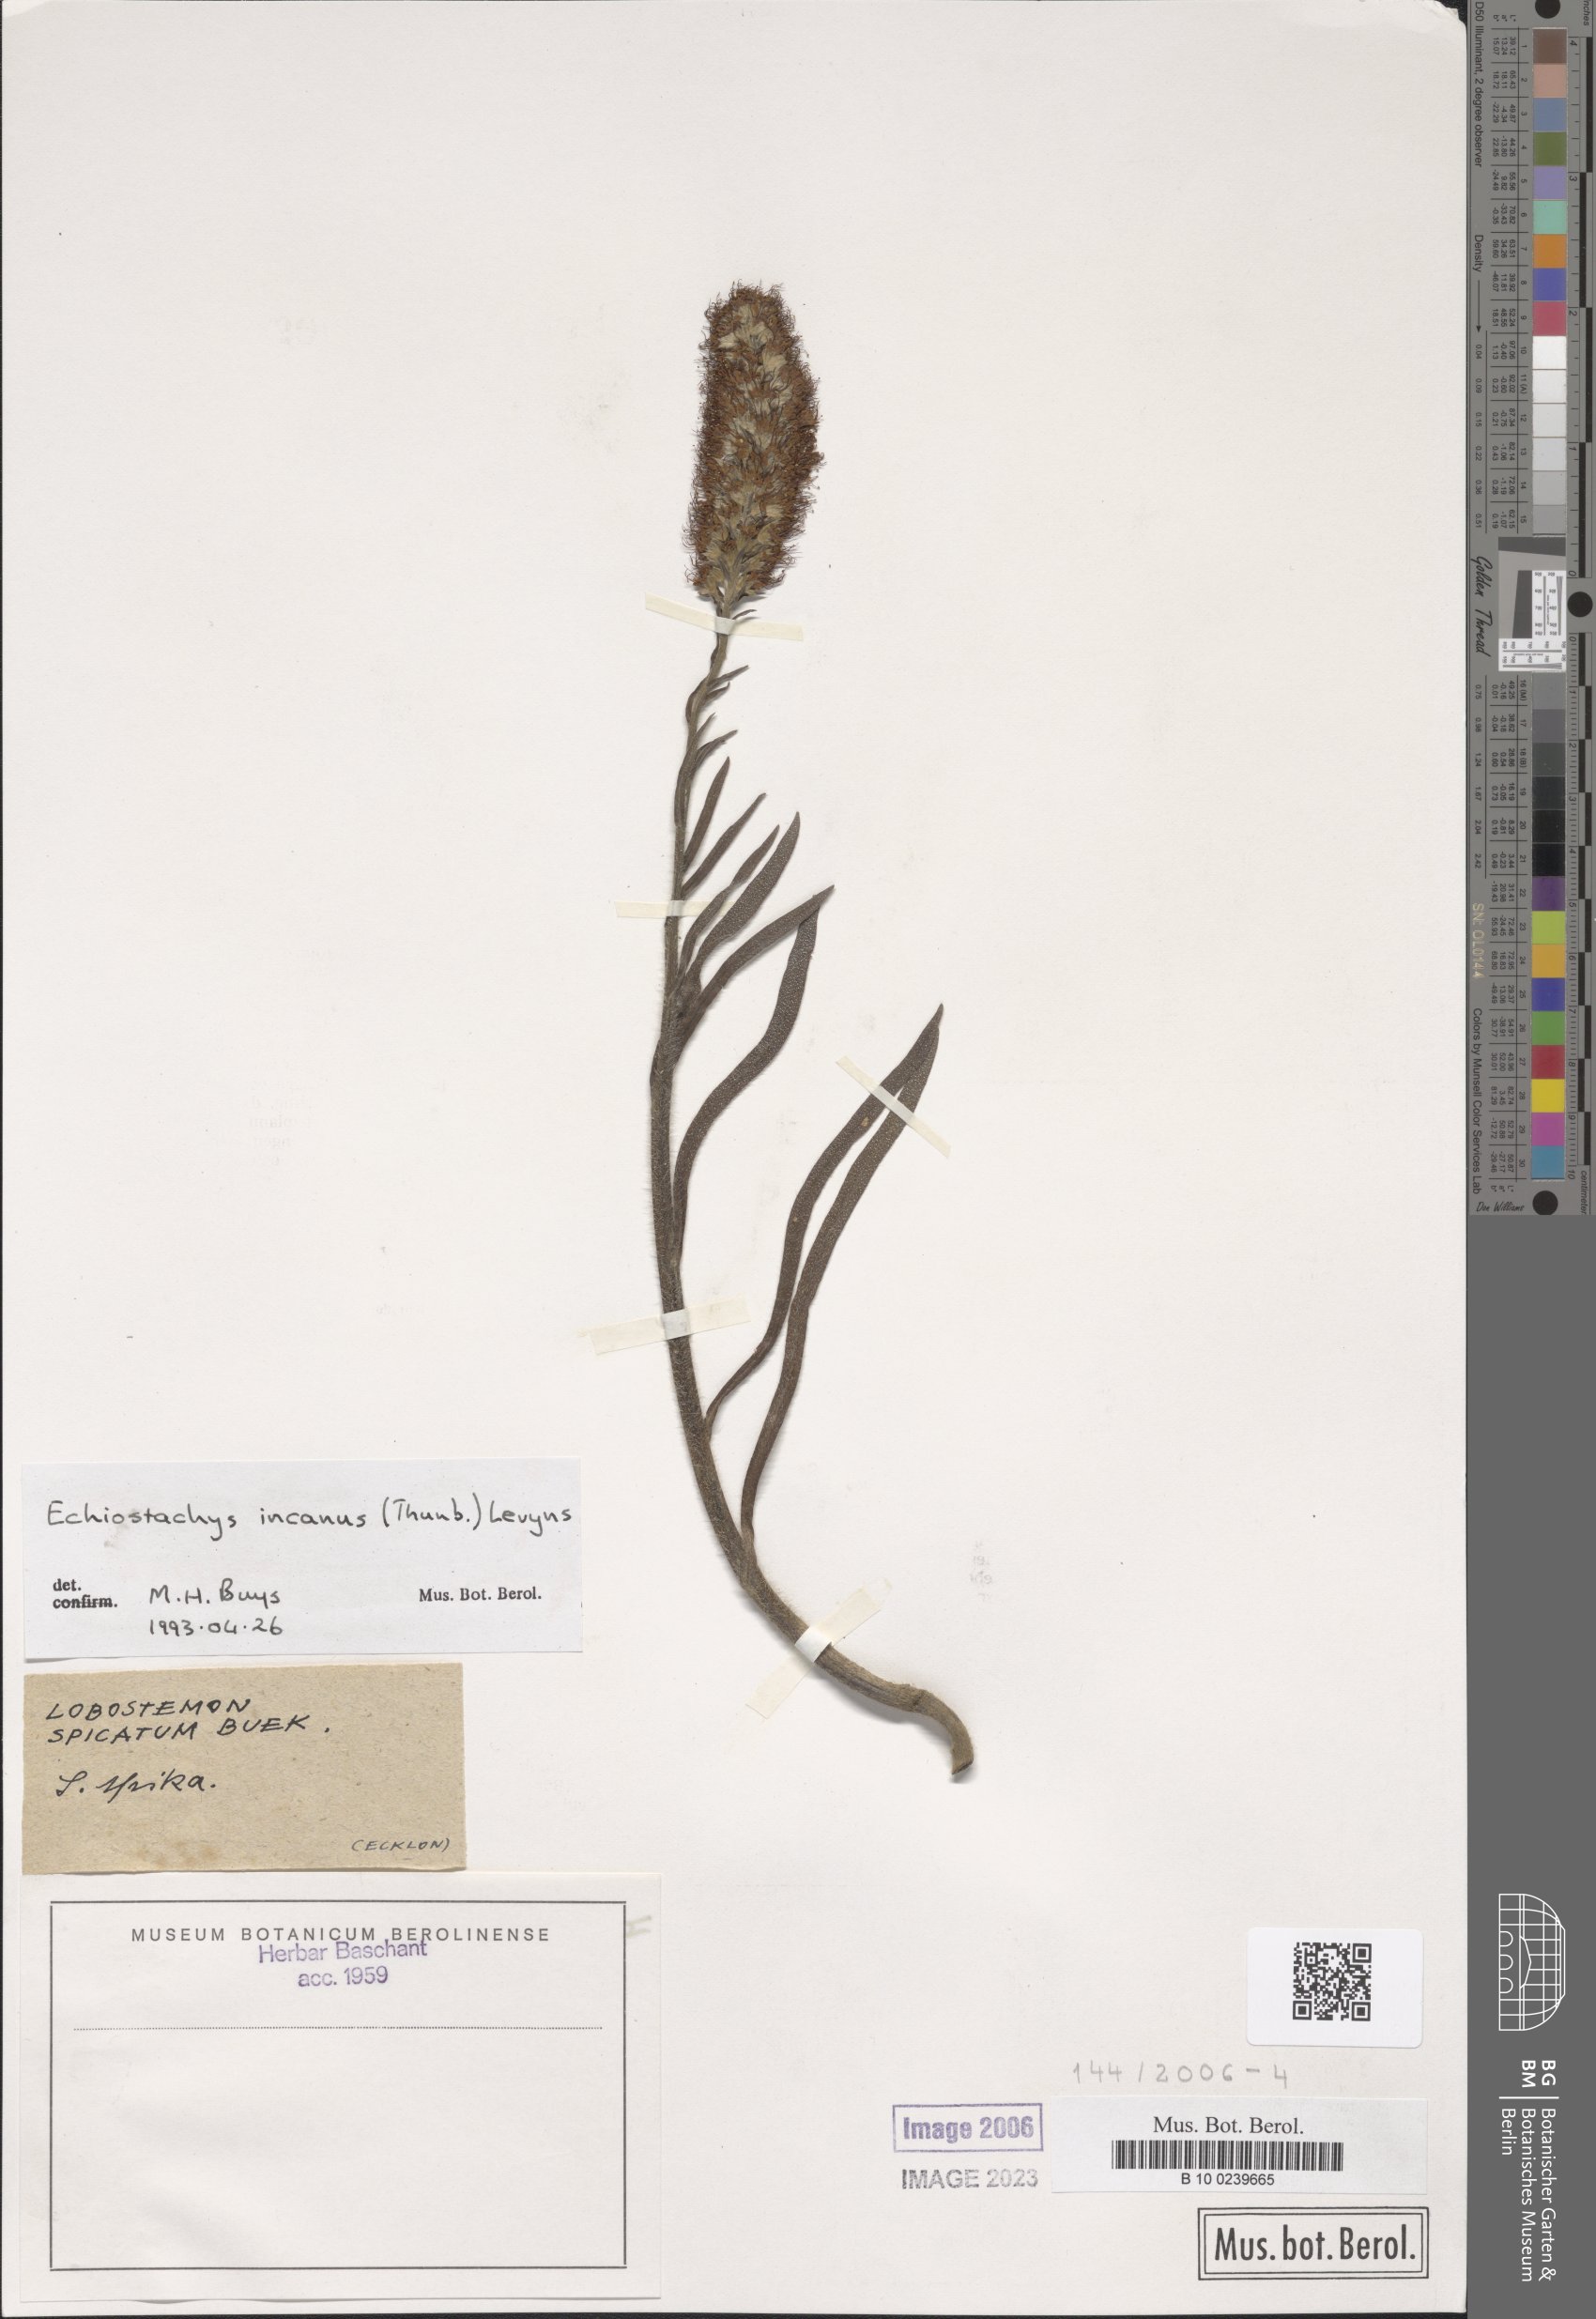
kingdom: Plantae
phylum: Tracheophyta
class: Magnoliopsida
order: Boraginales
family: Boraginaceae
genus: Lobostemon
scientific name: Lobostemon splendens
